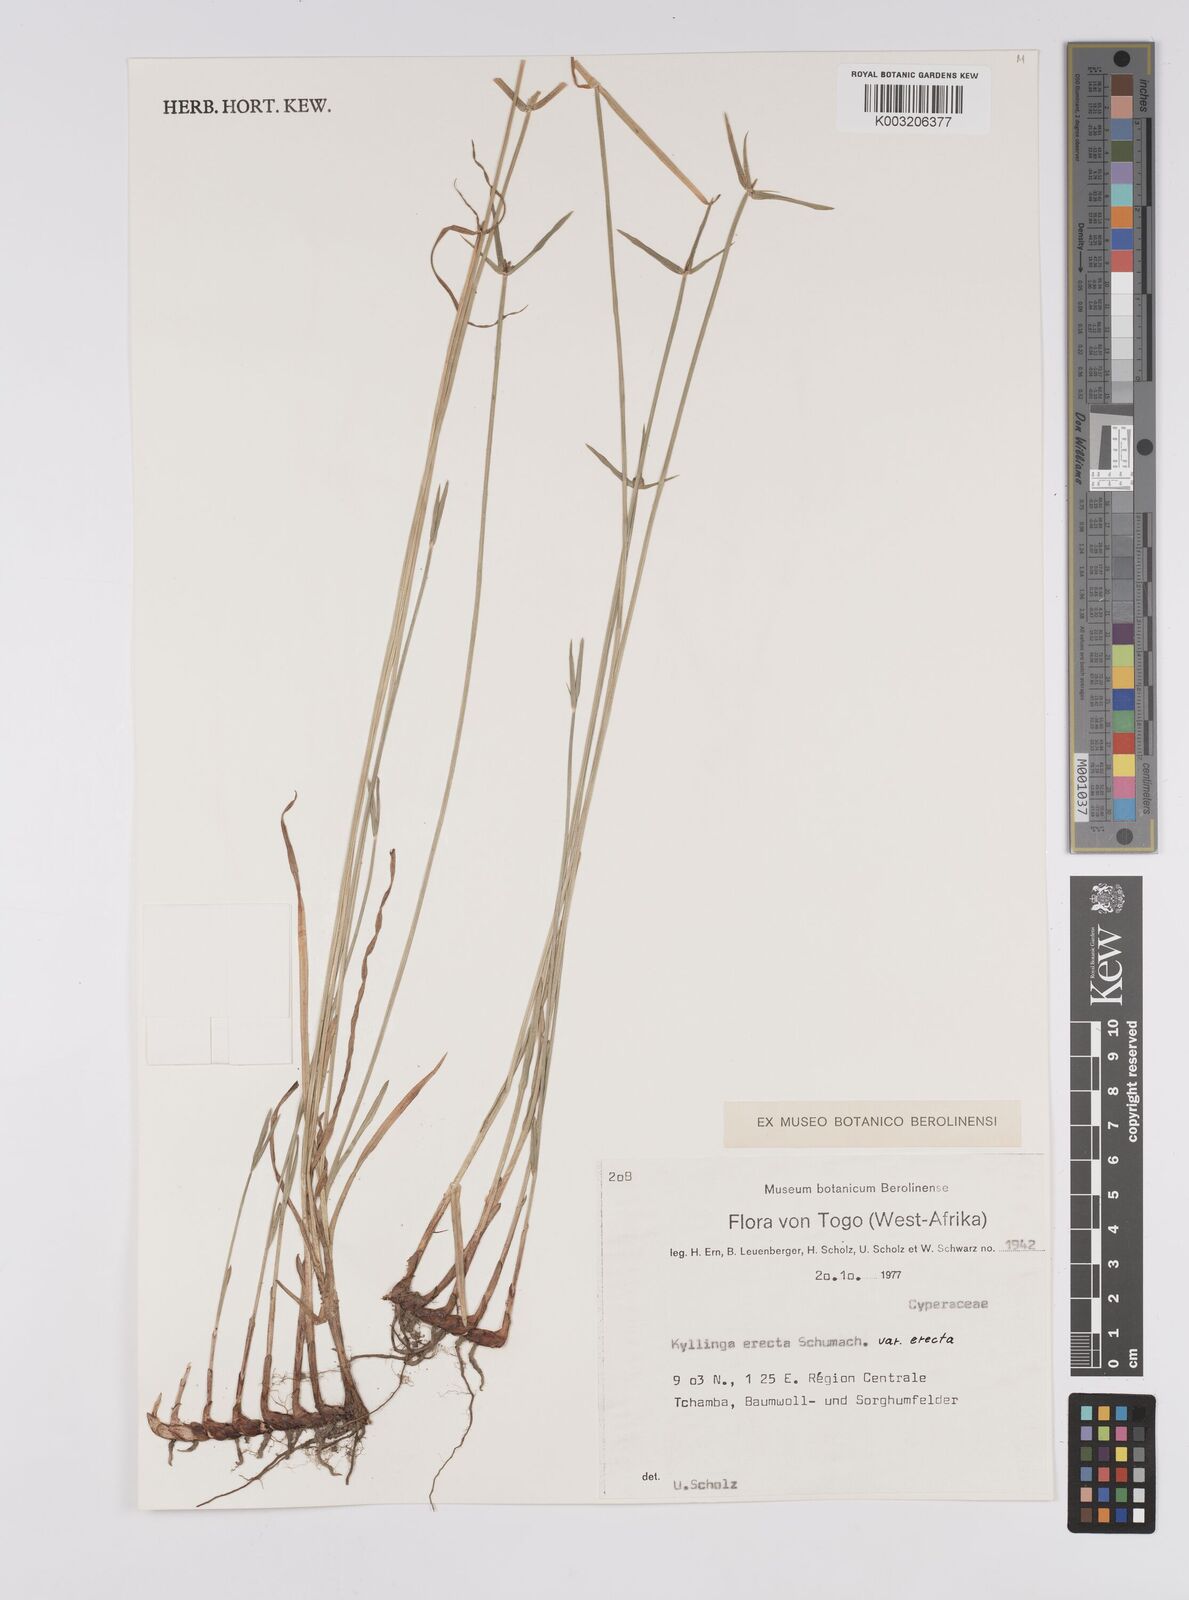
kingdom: Plantae
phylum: Tracheophyta
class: Liliopsida
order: Poales
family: Cyperaceae
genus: Cyperus
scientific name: Cyperus erectus
